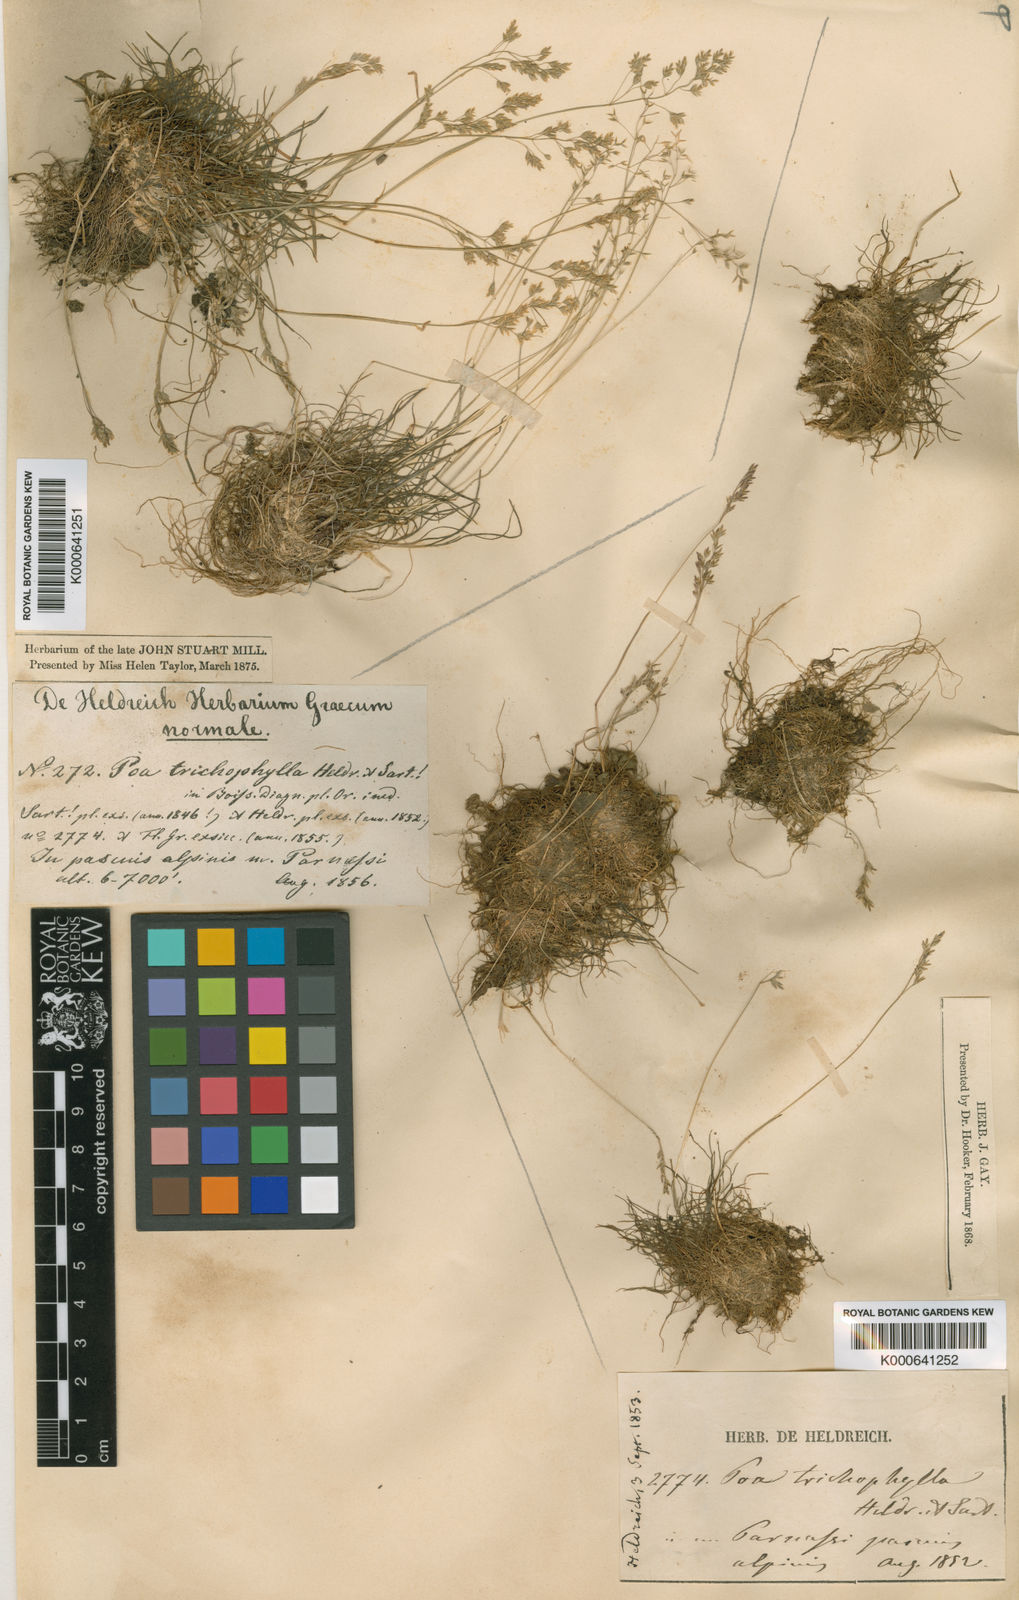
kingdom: Plantae
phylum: Tracheophyta
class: Liliopsida
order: Poales
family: Poaceae
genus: Poa
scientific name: Poa trichophylla
